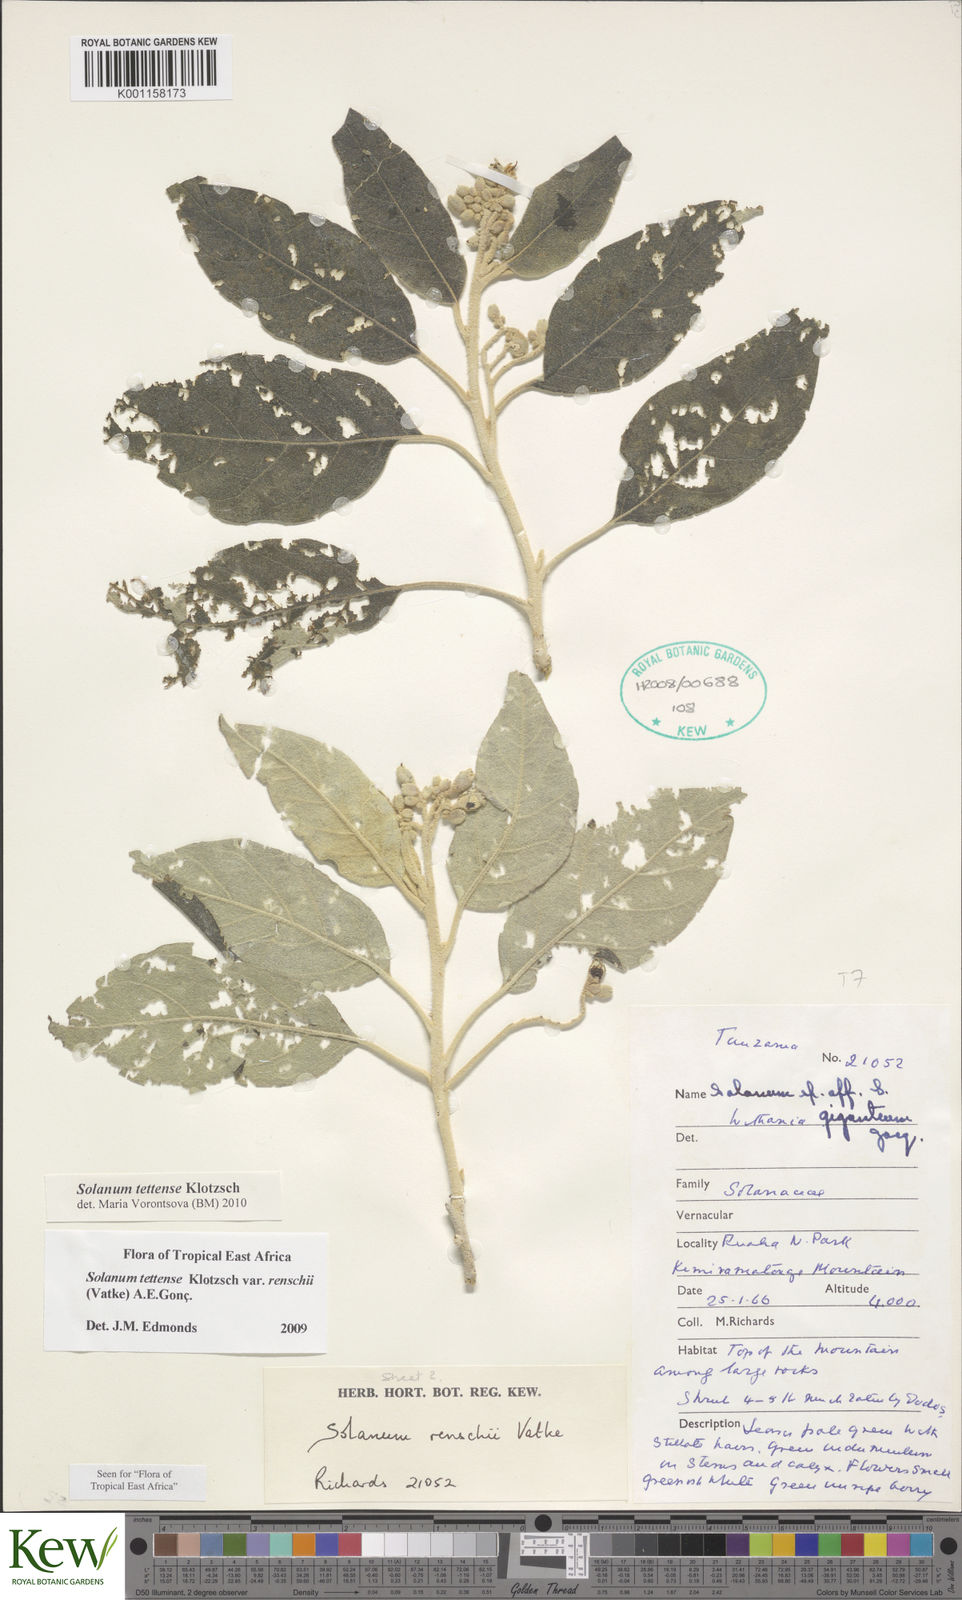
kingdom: Plantae
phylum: Tracheophyta
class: Magnoliopsida
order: Solanales
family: Solanaceae
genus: Solanum
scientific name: Solanum tettense
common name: Mozambique bitter apple
